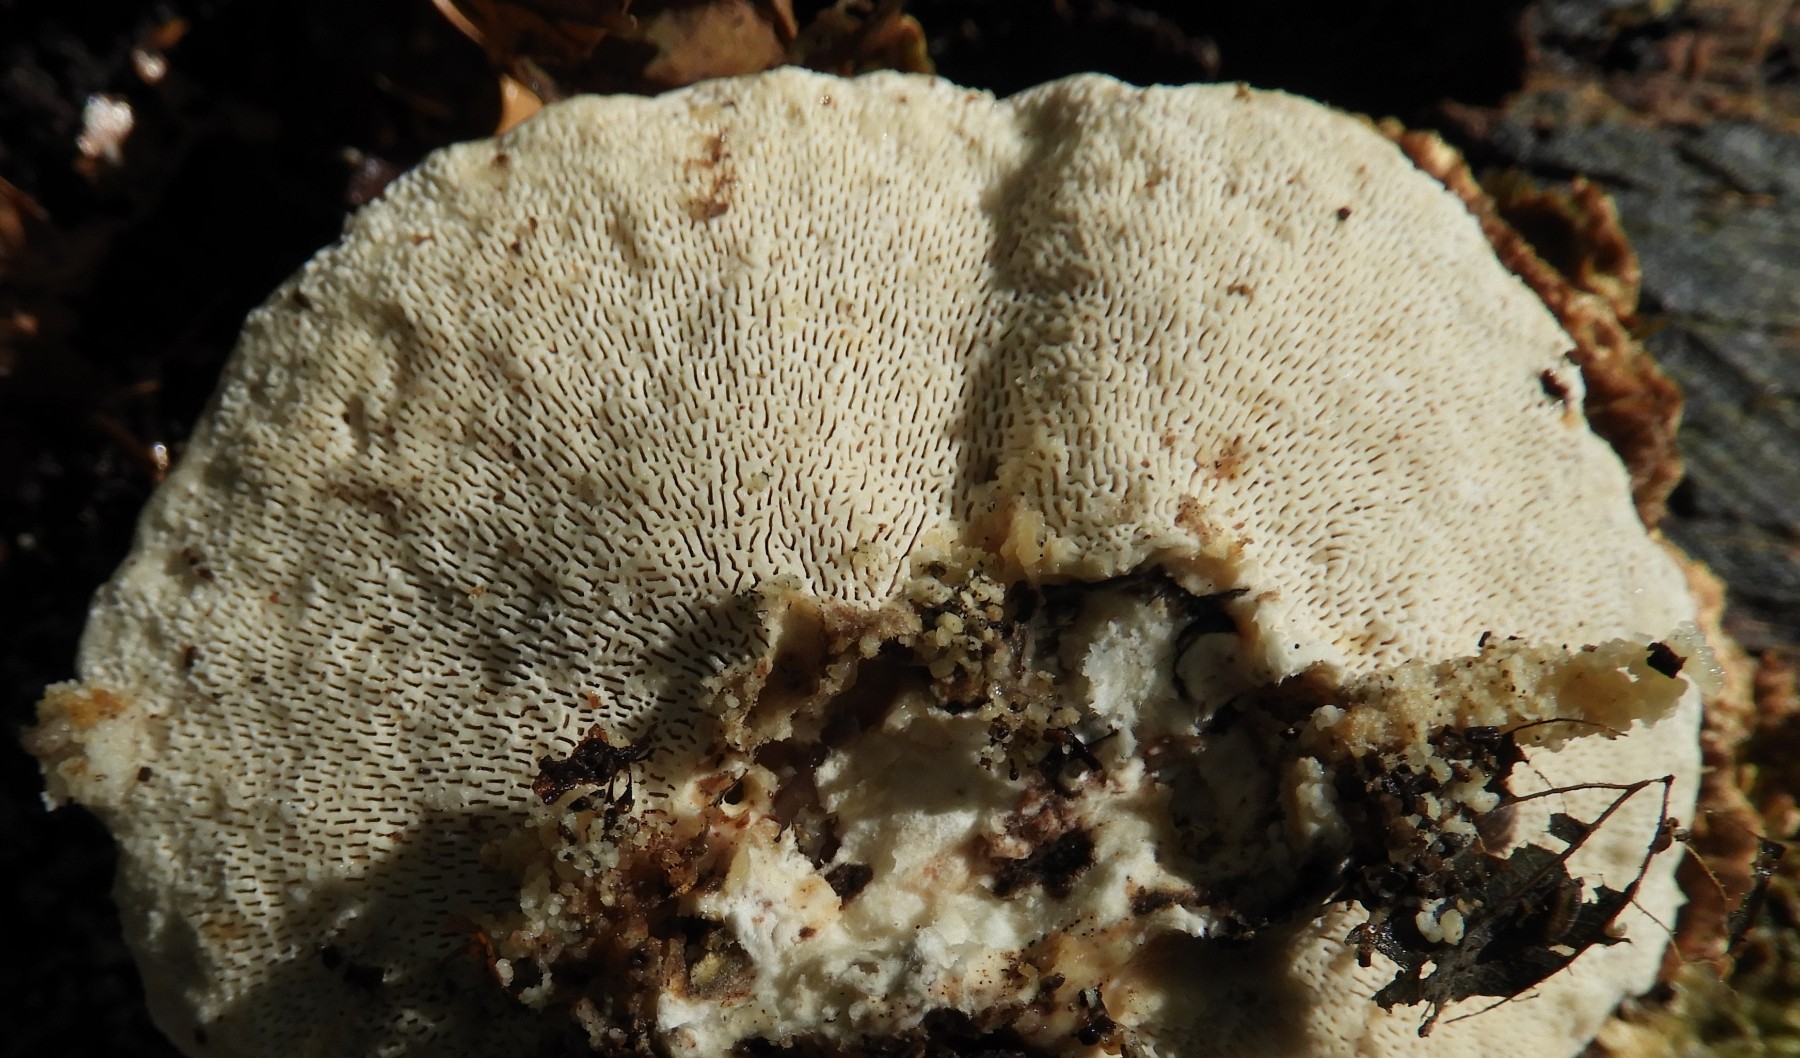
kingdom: Fungi
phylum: Basidiomycota
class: Agaricomycetes
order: Polyporales
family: Polyporaceae
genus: Trametes
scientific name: Trametes gibbosa
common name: puklet læderporesvamp
